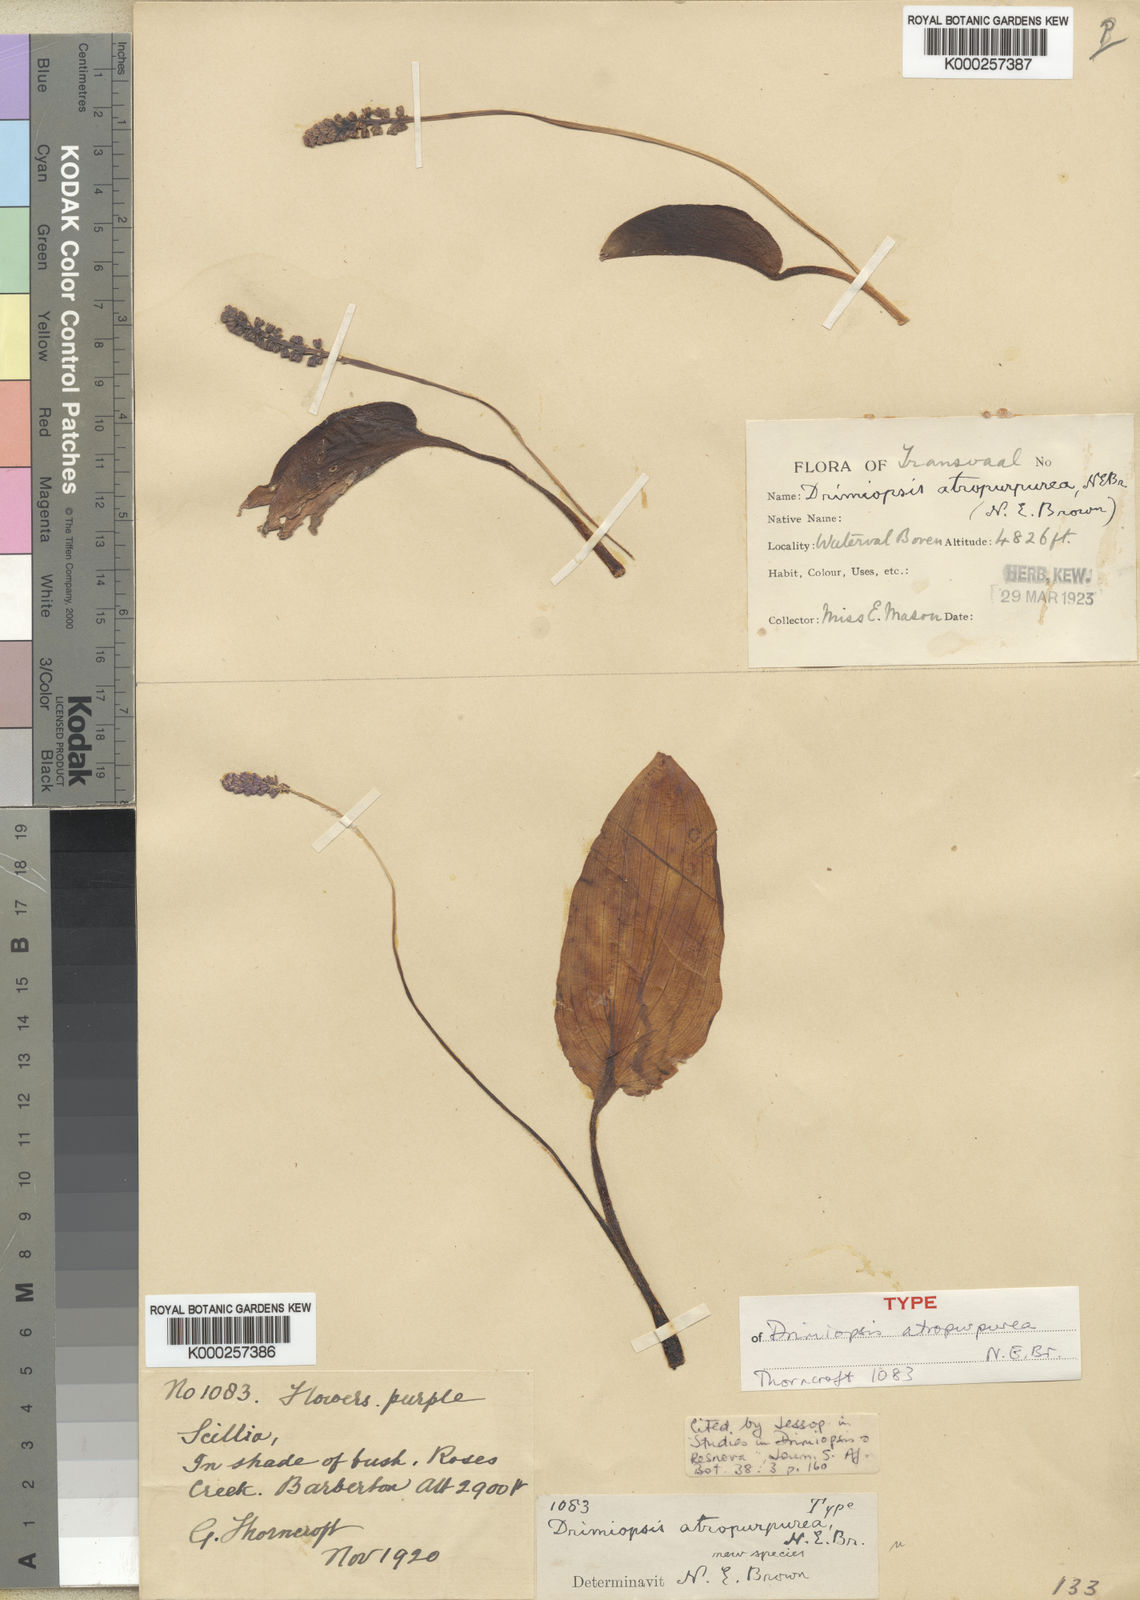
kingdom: Plantae
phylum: Tracheophyta
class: Liliopsida
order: Asparagales
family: Asparagaceae
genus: Drimiopsis
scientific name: Drimiopsis atropurpurea
